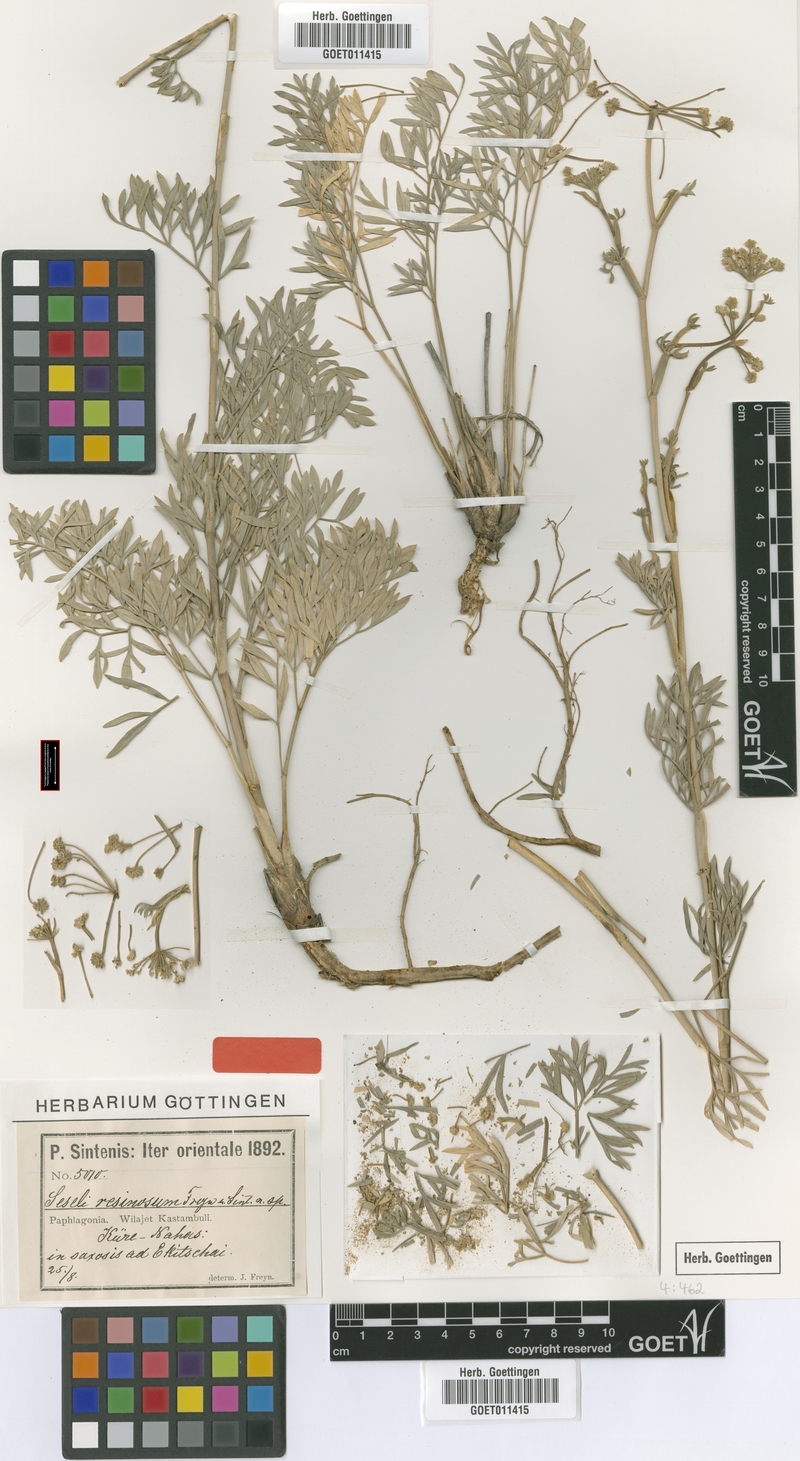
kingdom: Plantae
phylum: Tracheophyta
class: Magnoliopsida
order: Apiales
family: Apiaceae
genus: Seseli
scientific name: Seseli resinosum
